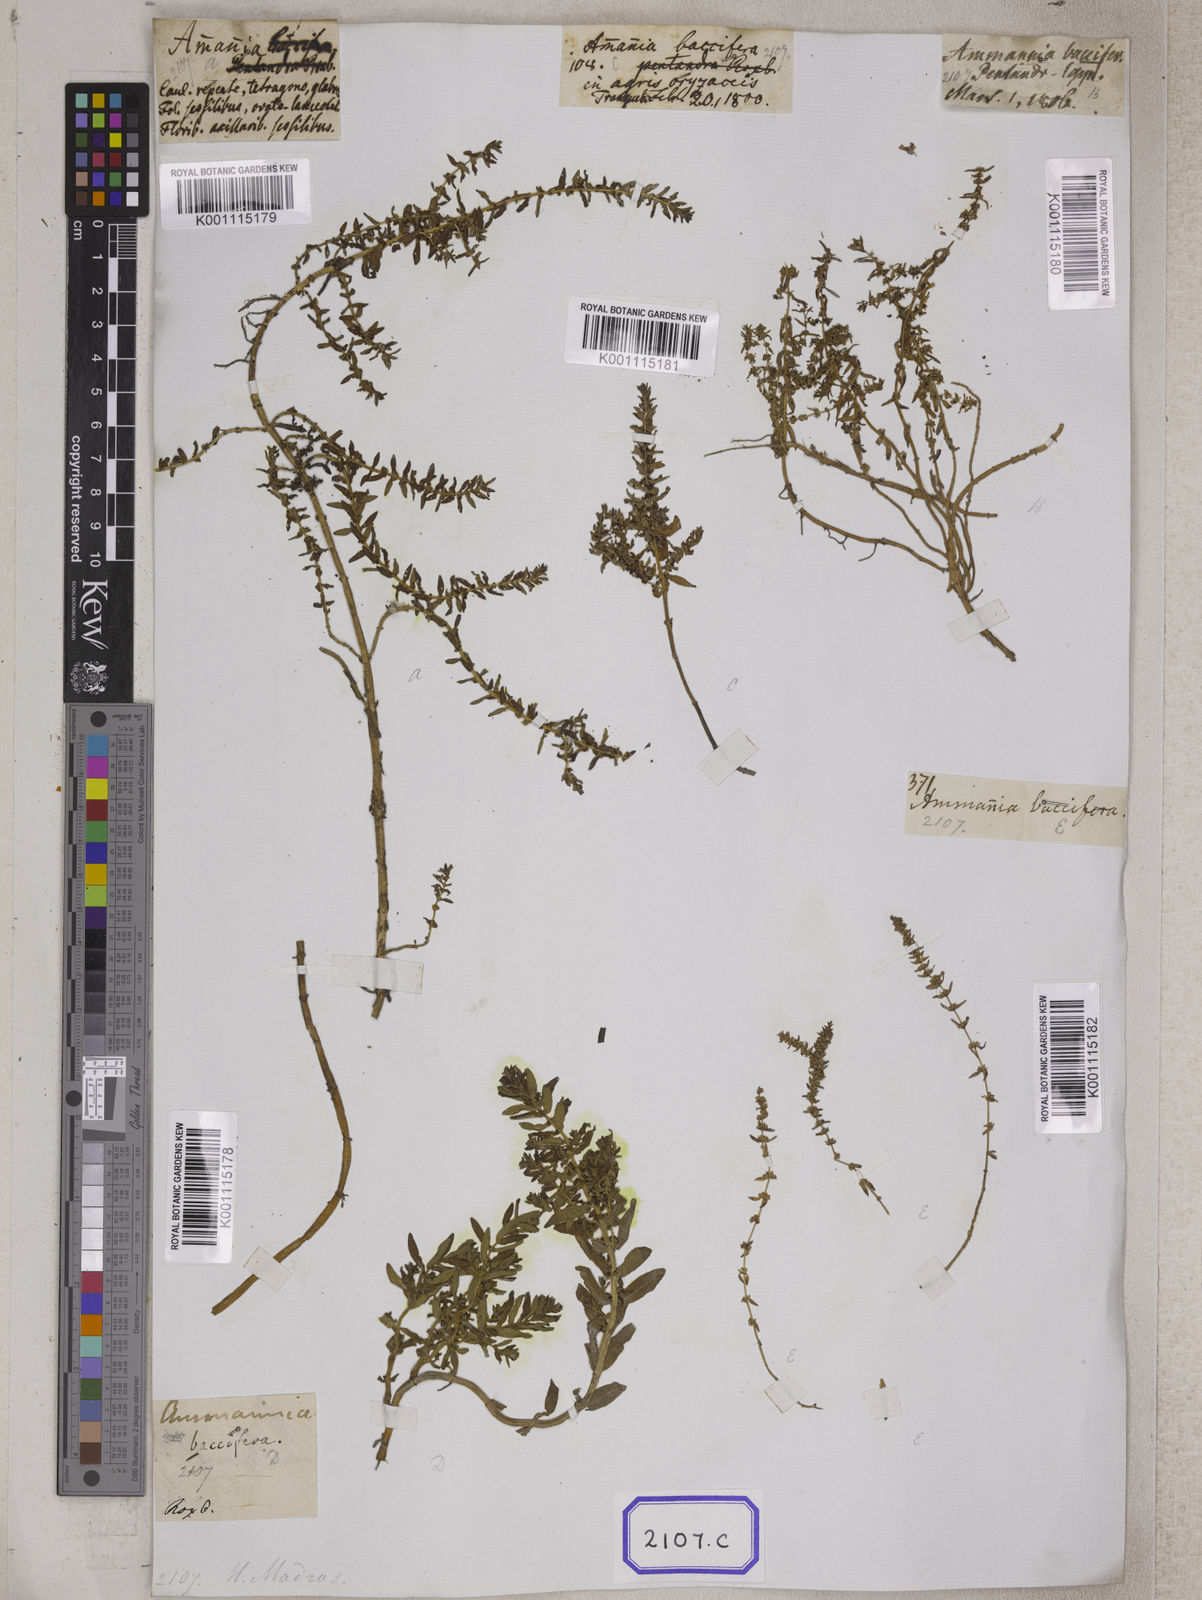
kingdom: Plantae
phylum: Tracheophyta
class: Magnoliopsida
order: Myrtales
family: Lythraceae
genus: Ammannia
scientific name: Ammannia
